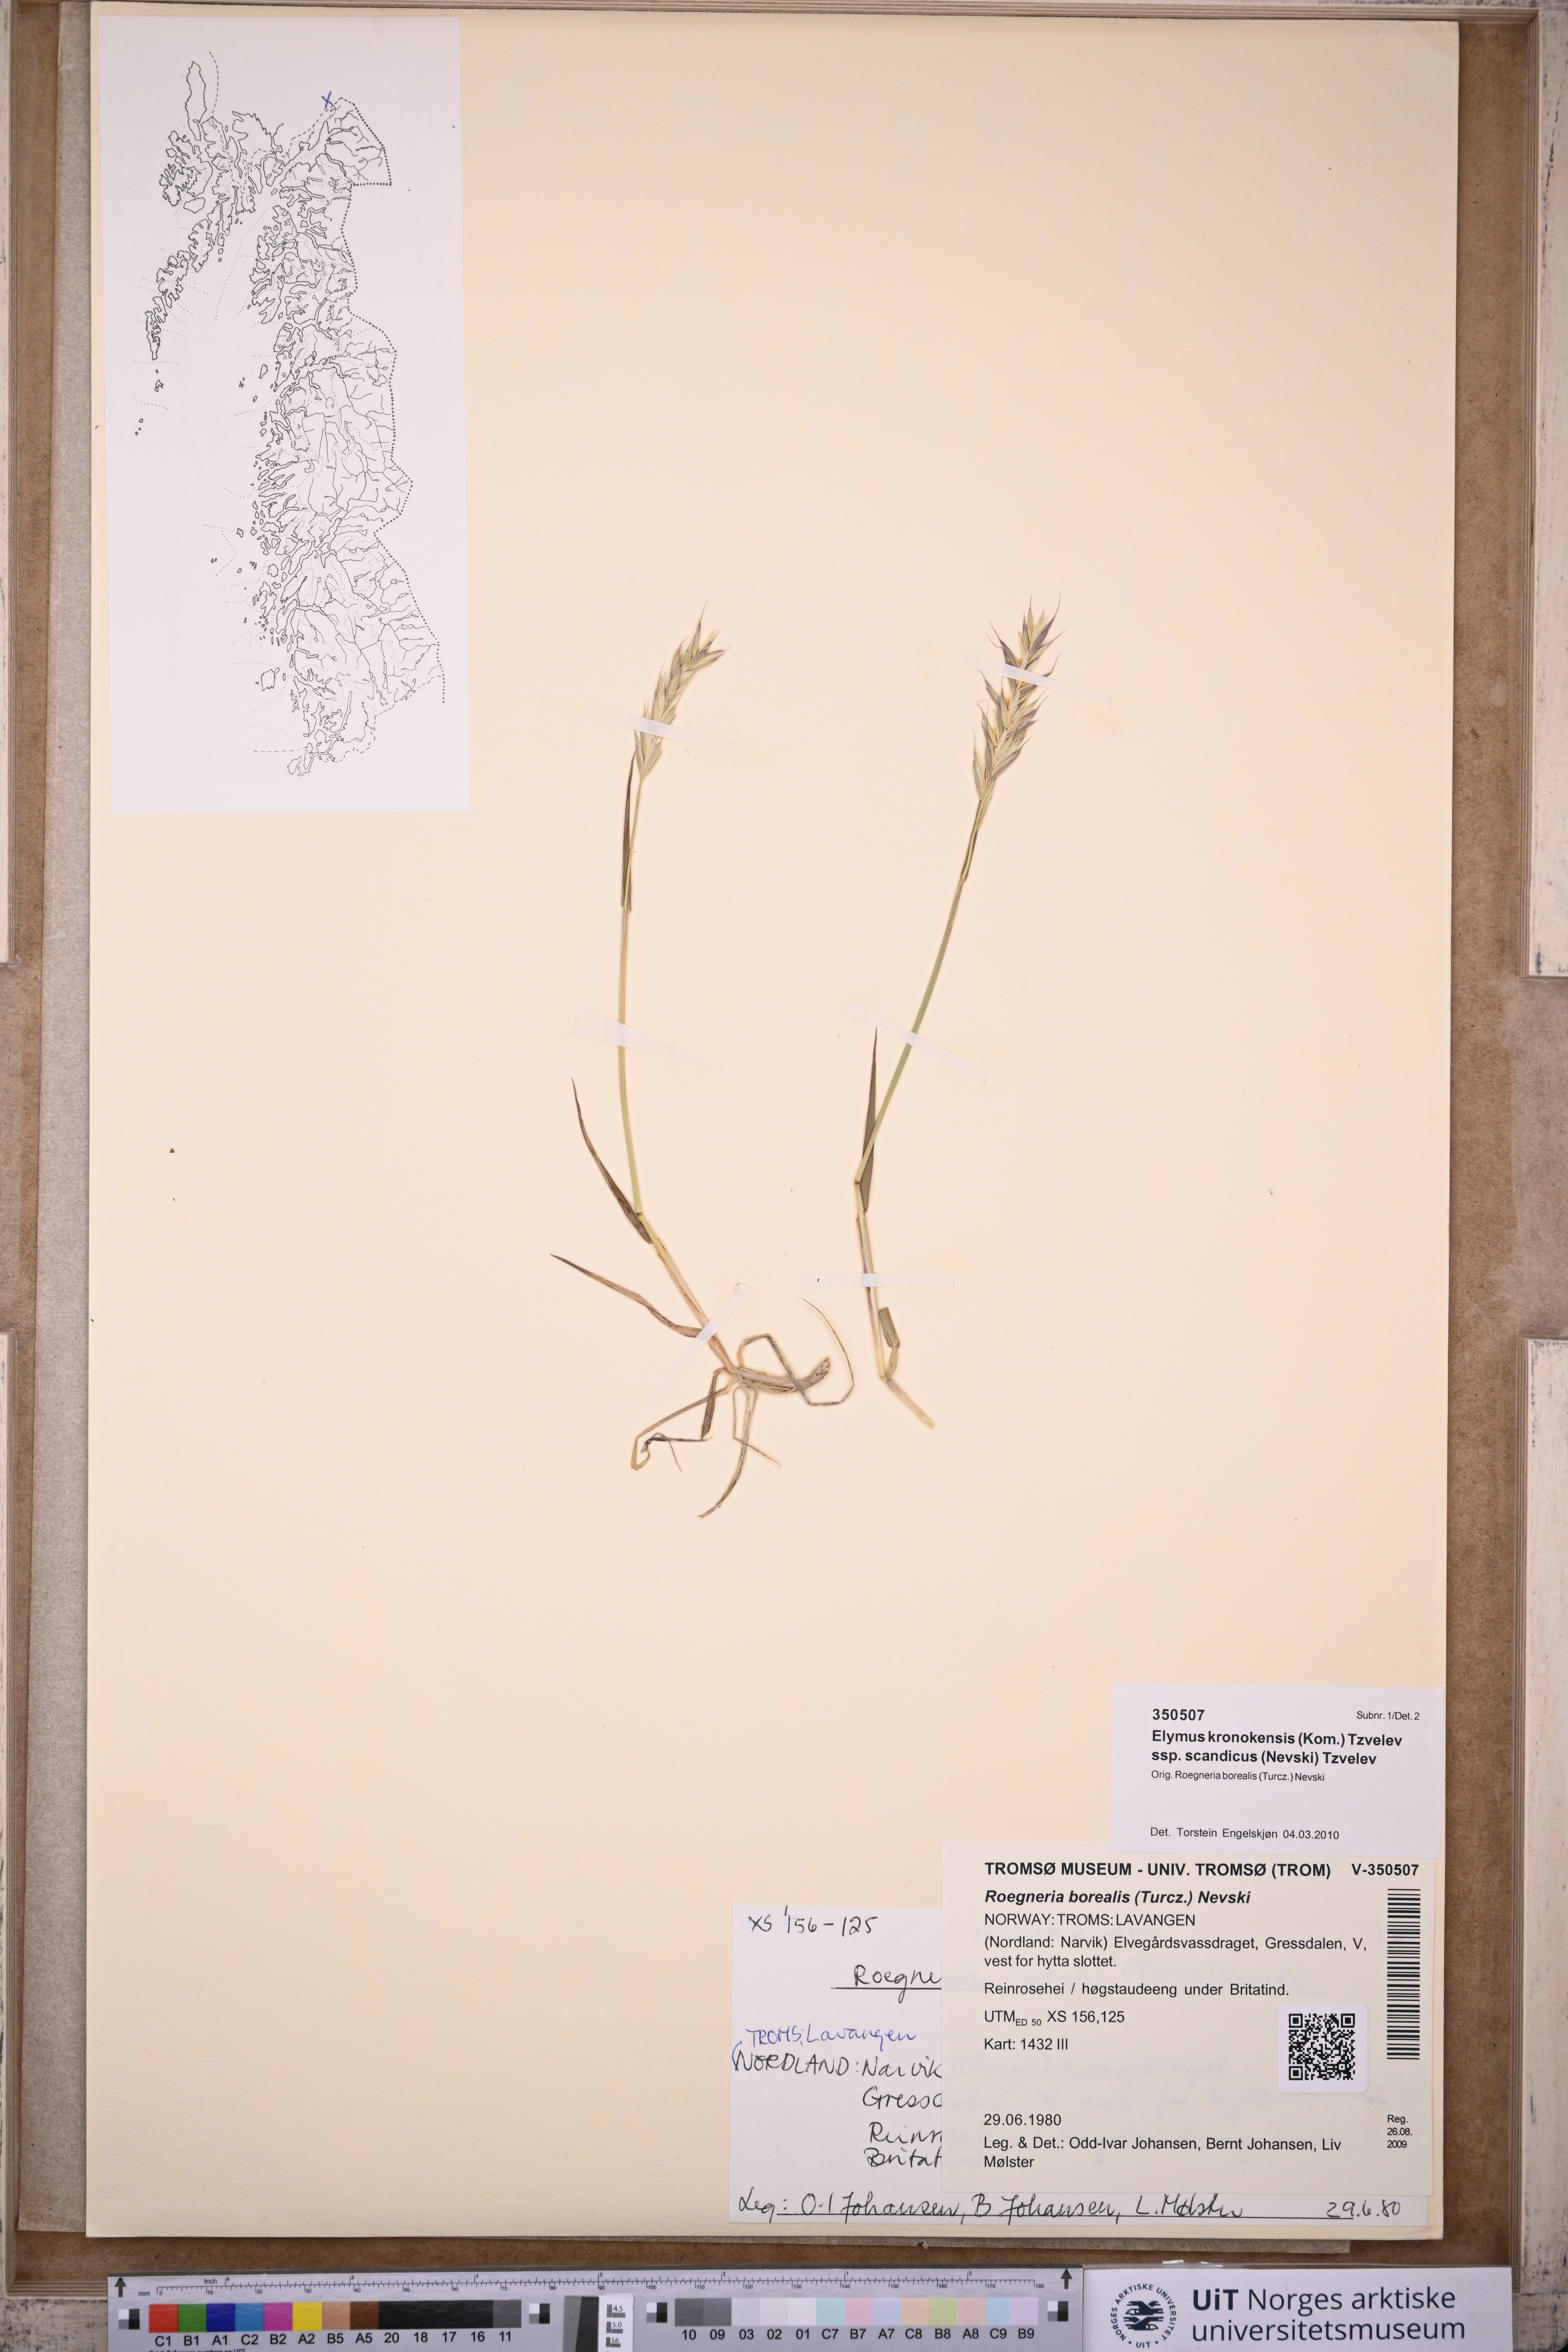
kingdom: Plantae
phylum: Tracheophyta
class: Liliopsida
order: Poales
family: Poaceae
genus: Elymus
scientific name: Elymus macrourus
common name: Northern wheatgrass
